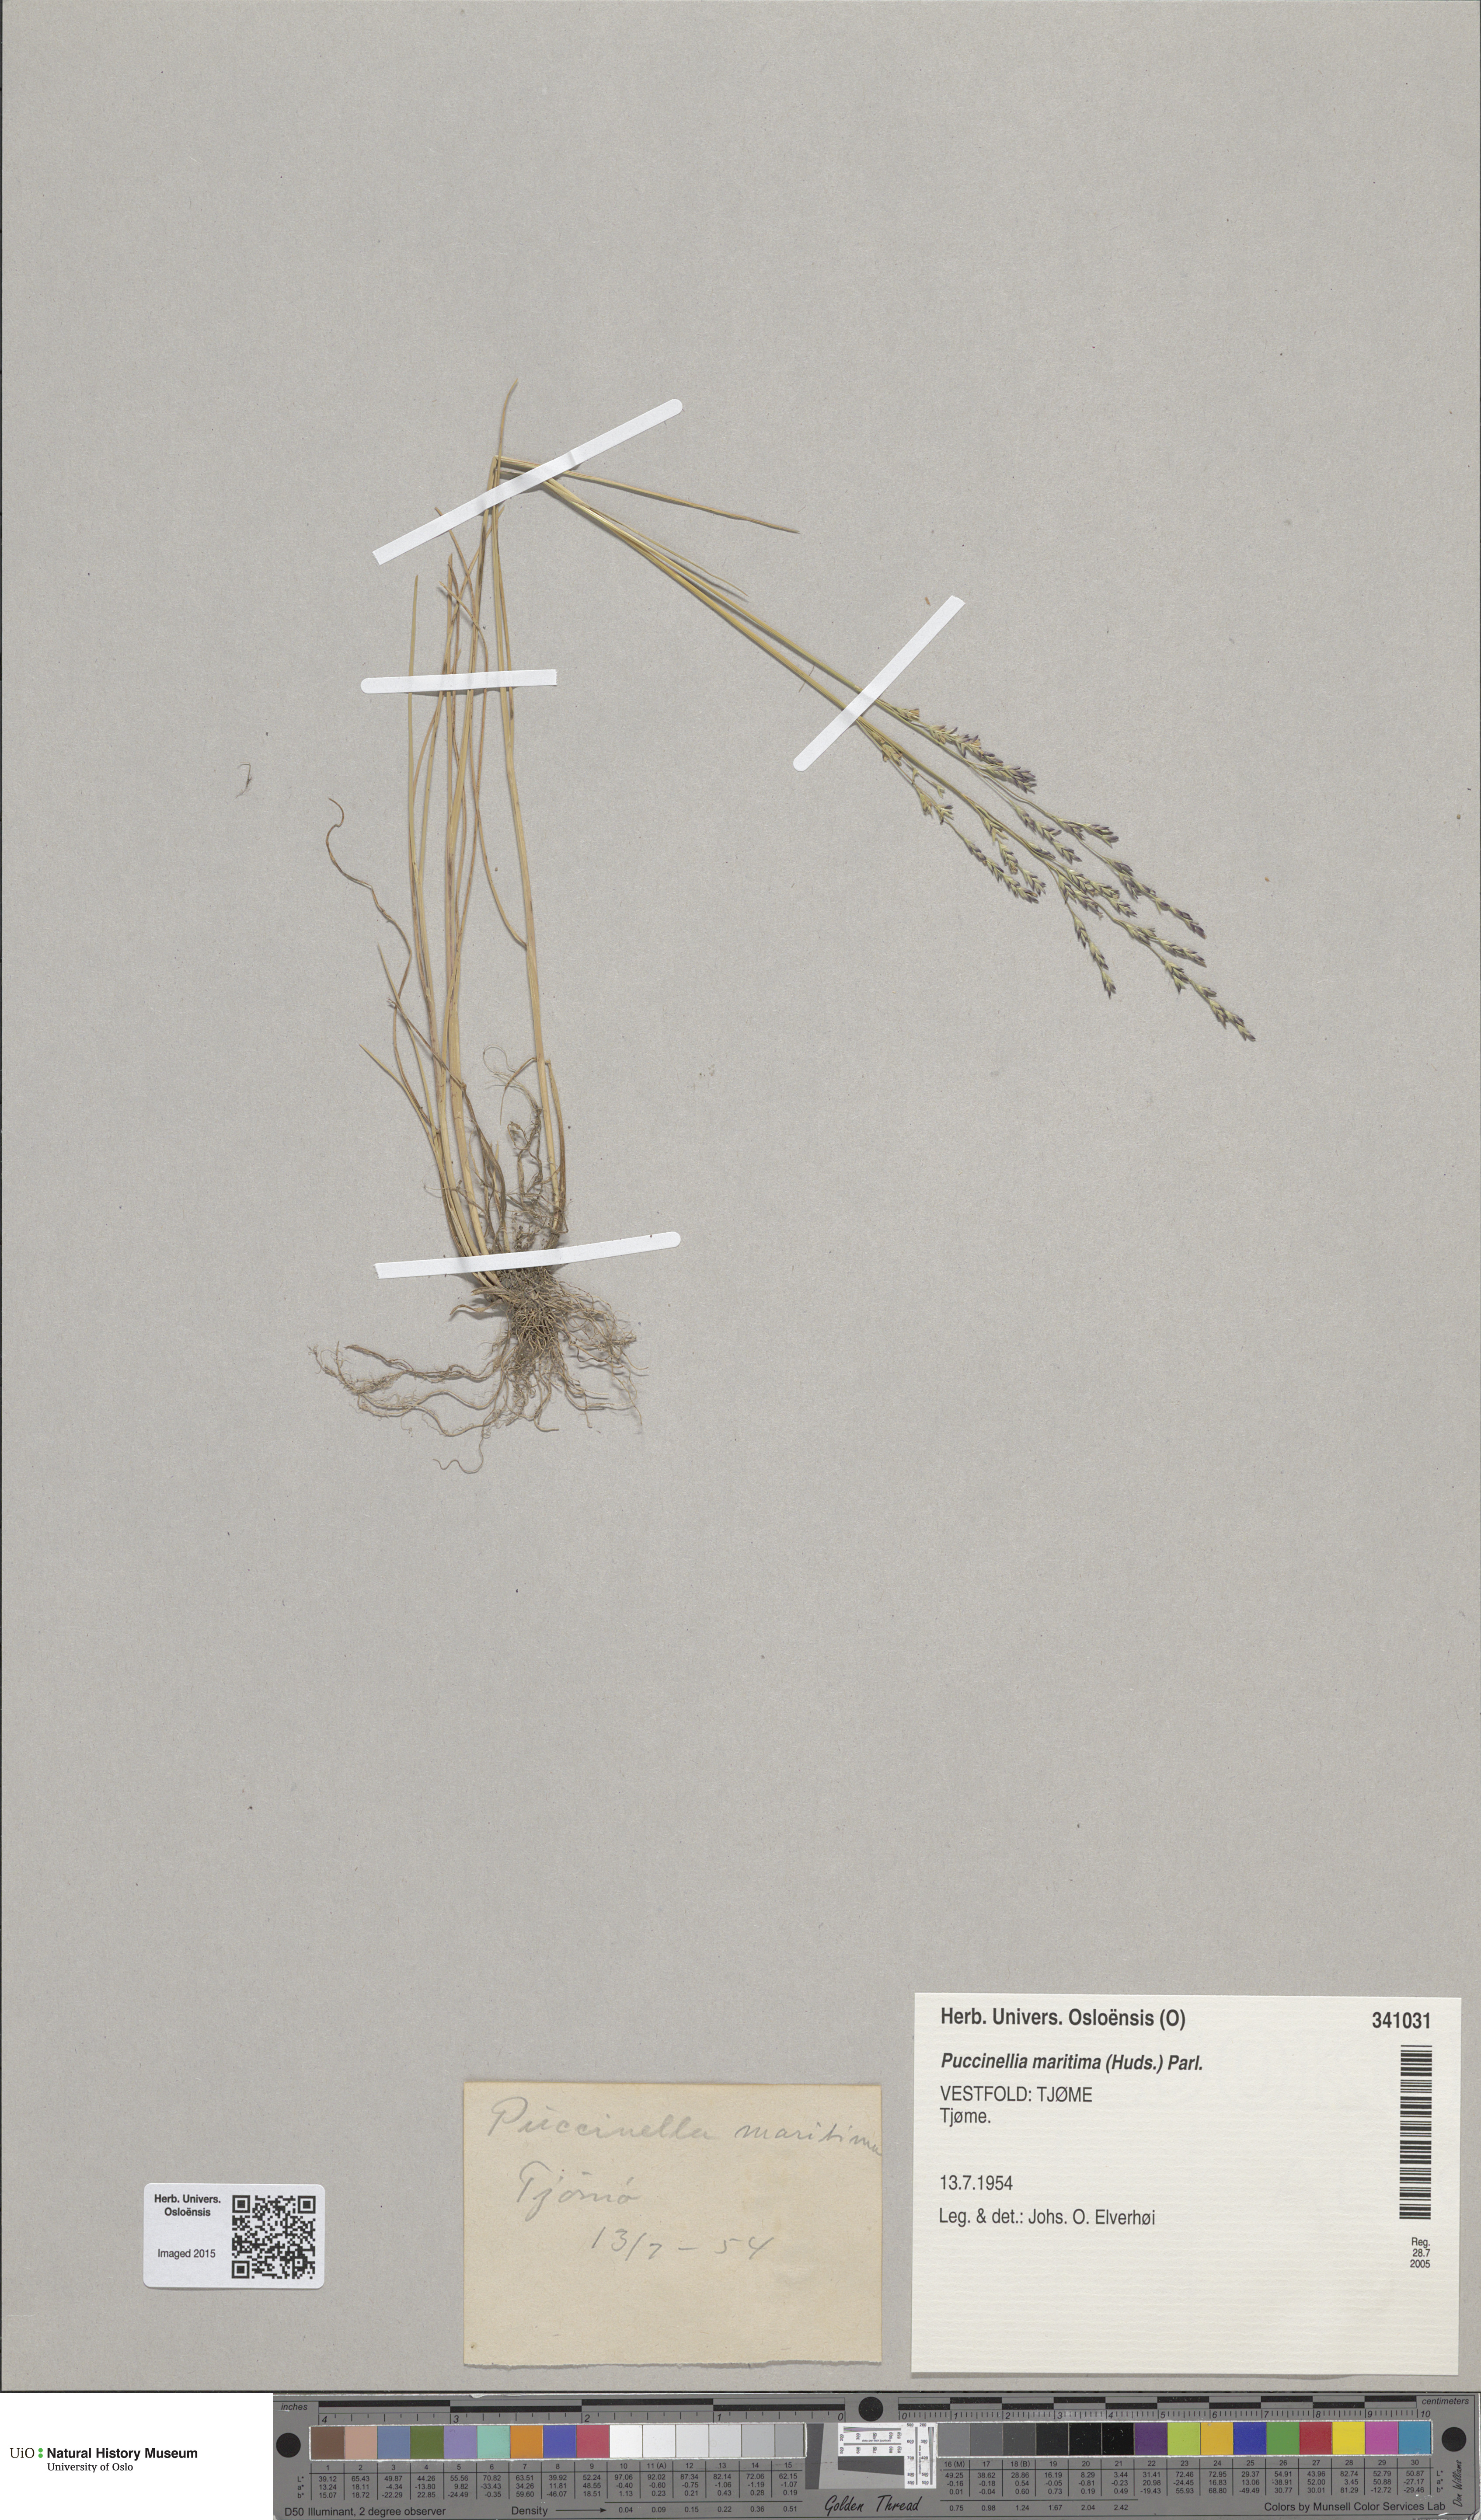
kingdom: Plantae
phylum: Tracheophyta
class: Liliopsida
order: Poales
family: Poaceae
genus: Puccinellia
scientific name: Puccinellia maritima
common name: Common saltmarsh grass
